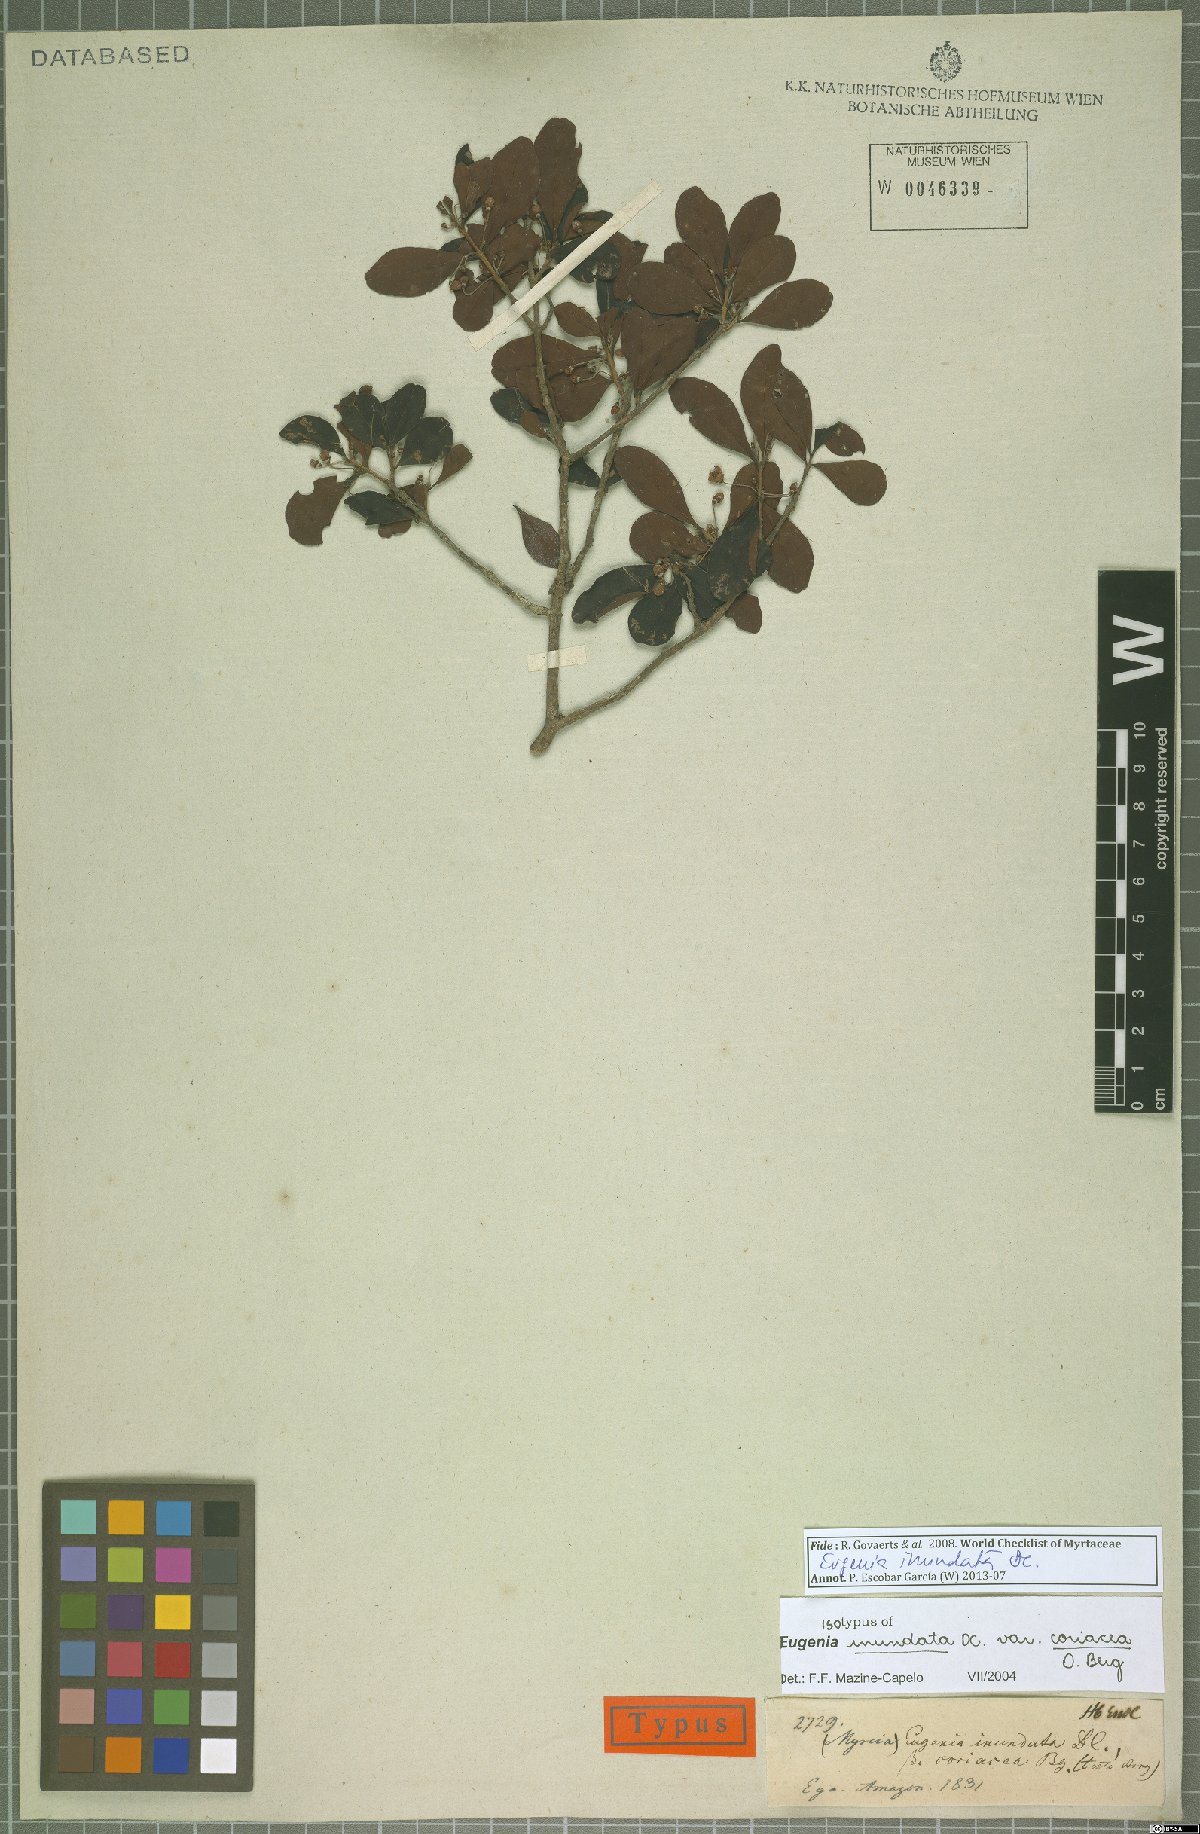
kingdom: Plantae
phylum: Tracheophyta
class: Magnoliopsida
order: Myrtales
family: Myrtaceae
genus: Eugenia
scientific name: Eugenia inundata
